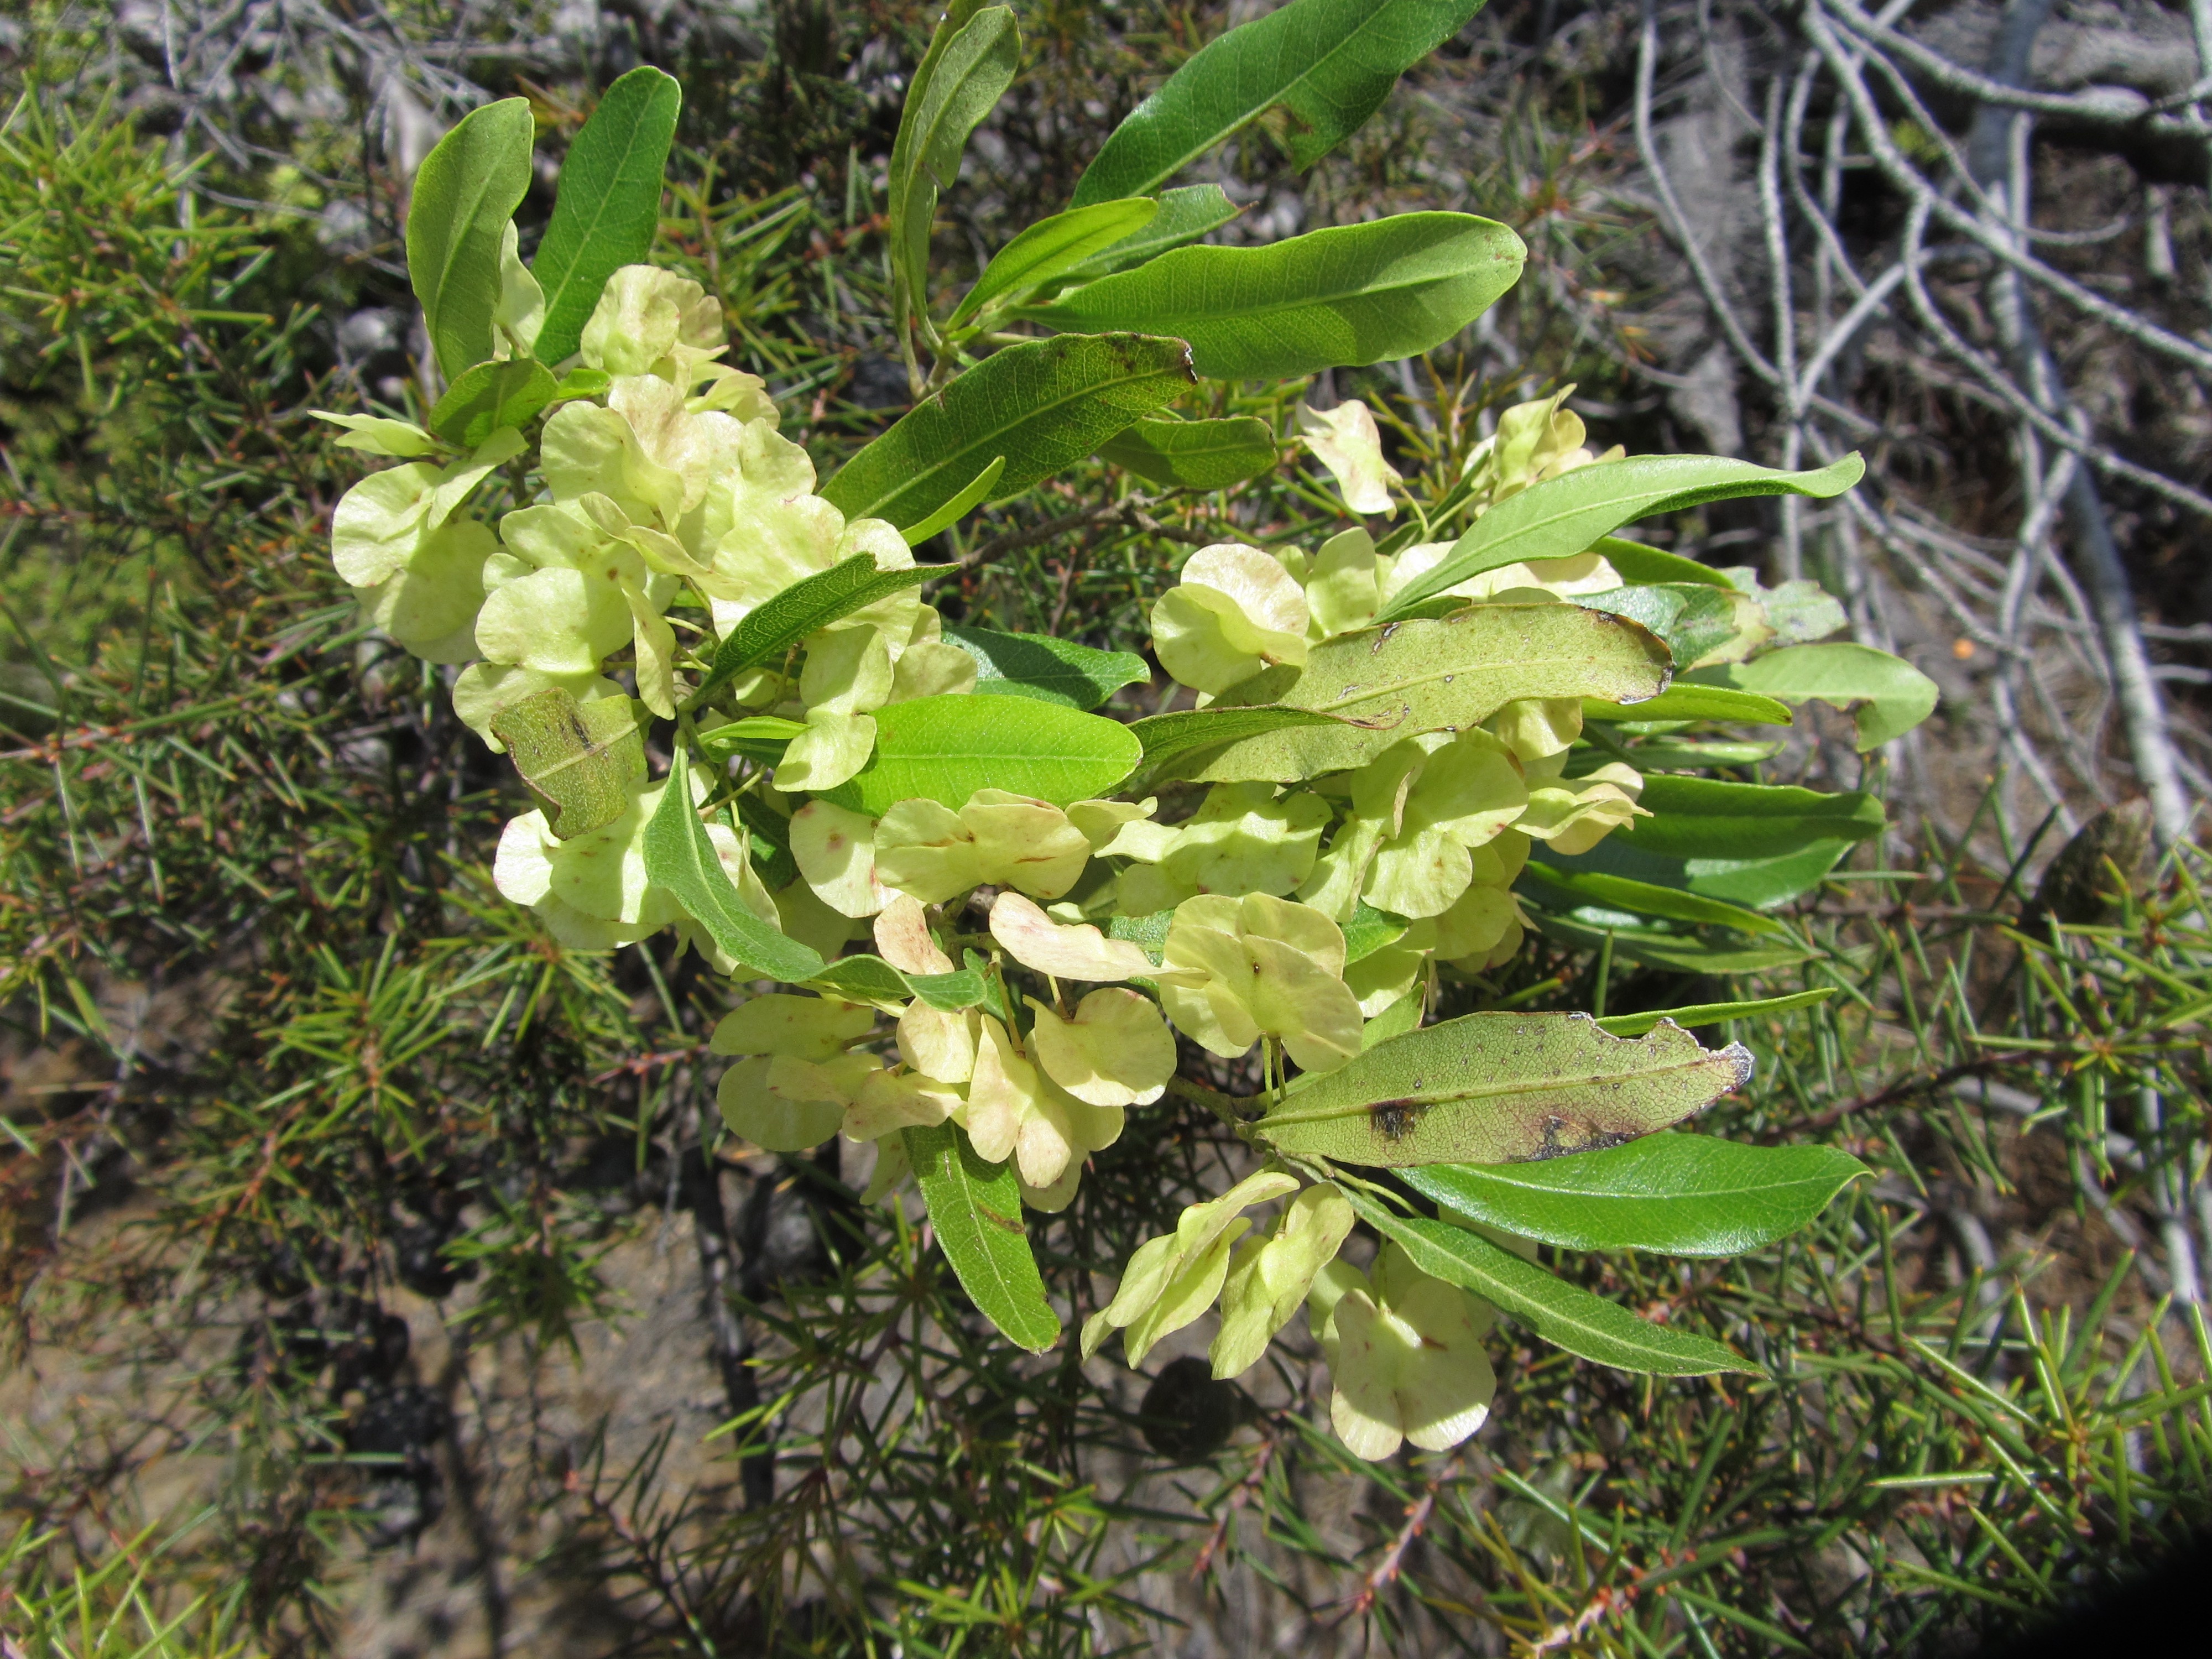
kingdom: Plantae
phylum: Tracheophyta
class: Magnoliopsida
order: Sapindales
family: Sapindaceae
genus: Dodonaea
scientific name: Dodonaea viscosa
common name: Hopbush
